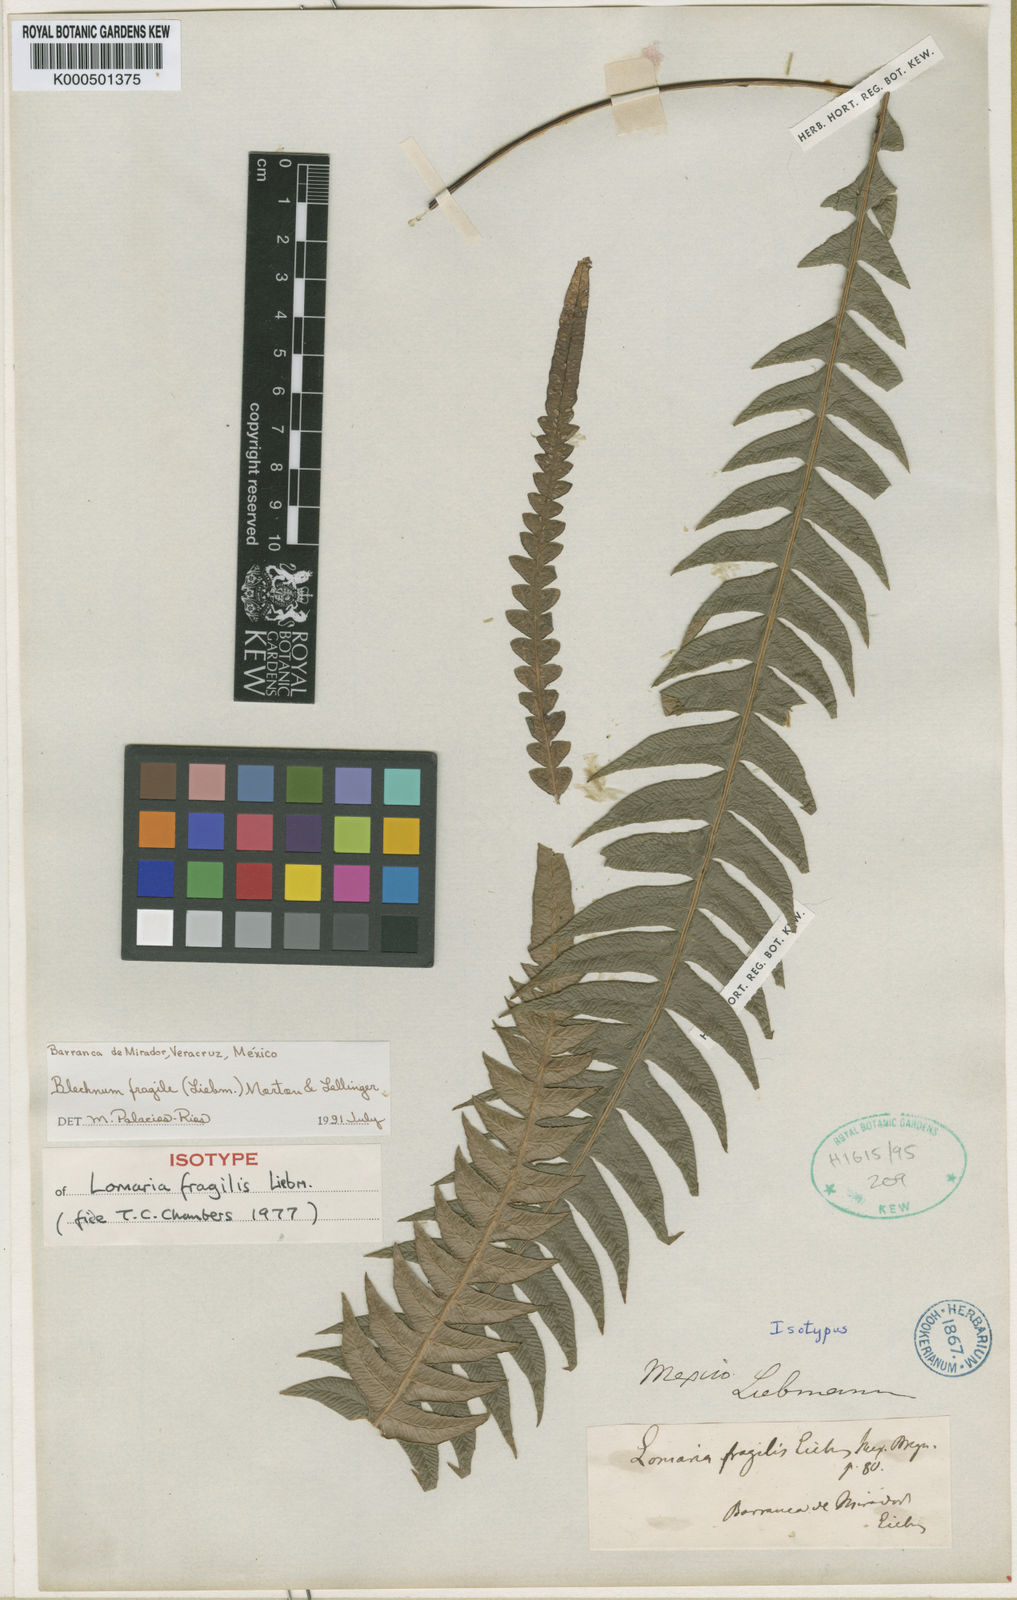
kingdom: Plantae
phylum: Tracheophyta
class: Polypodiopsida
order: Polypodiales
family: Blechnaceae
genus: Lomaridium
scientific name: Lomaridium fragile
